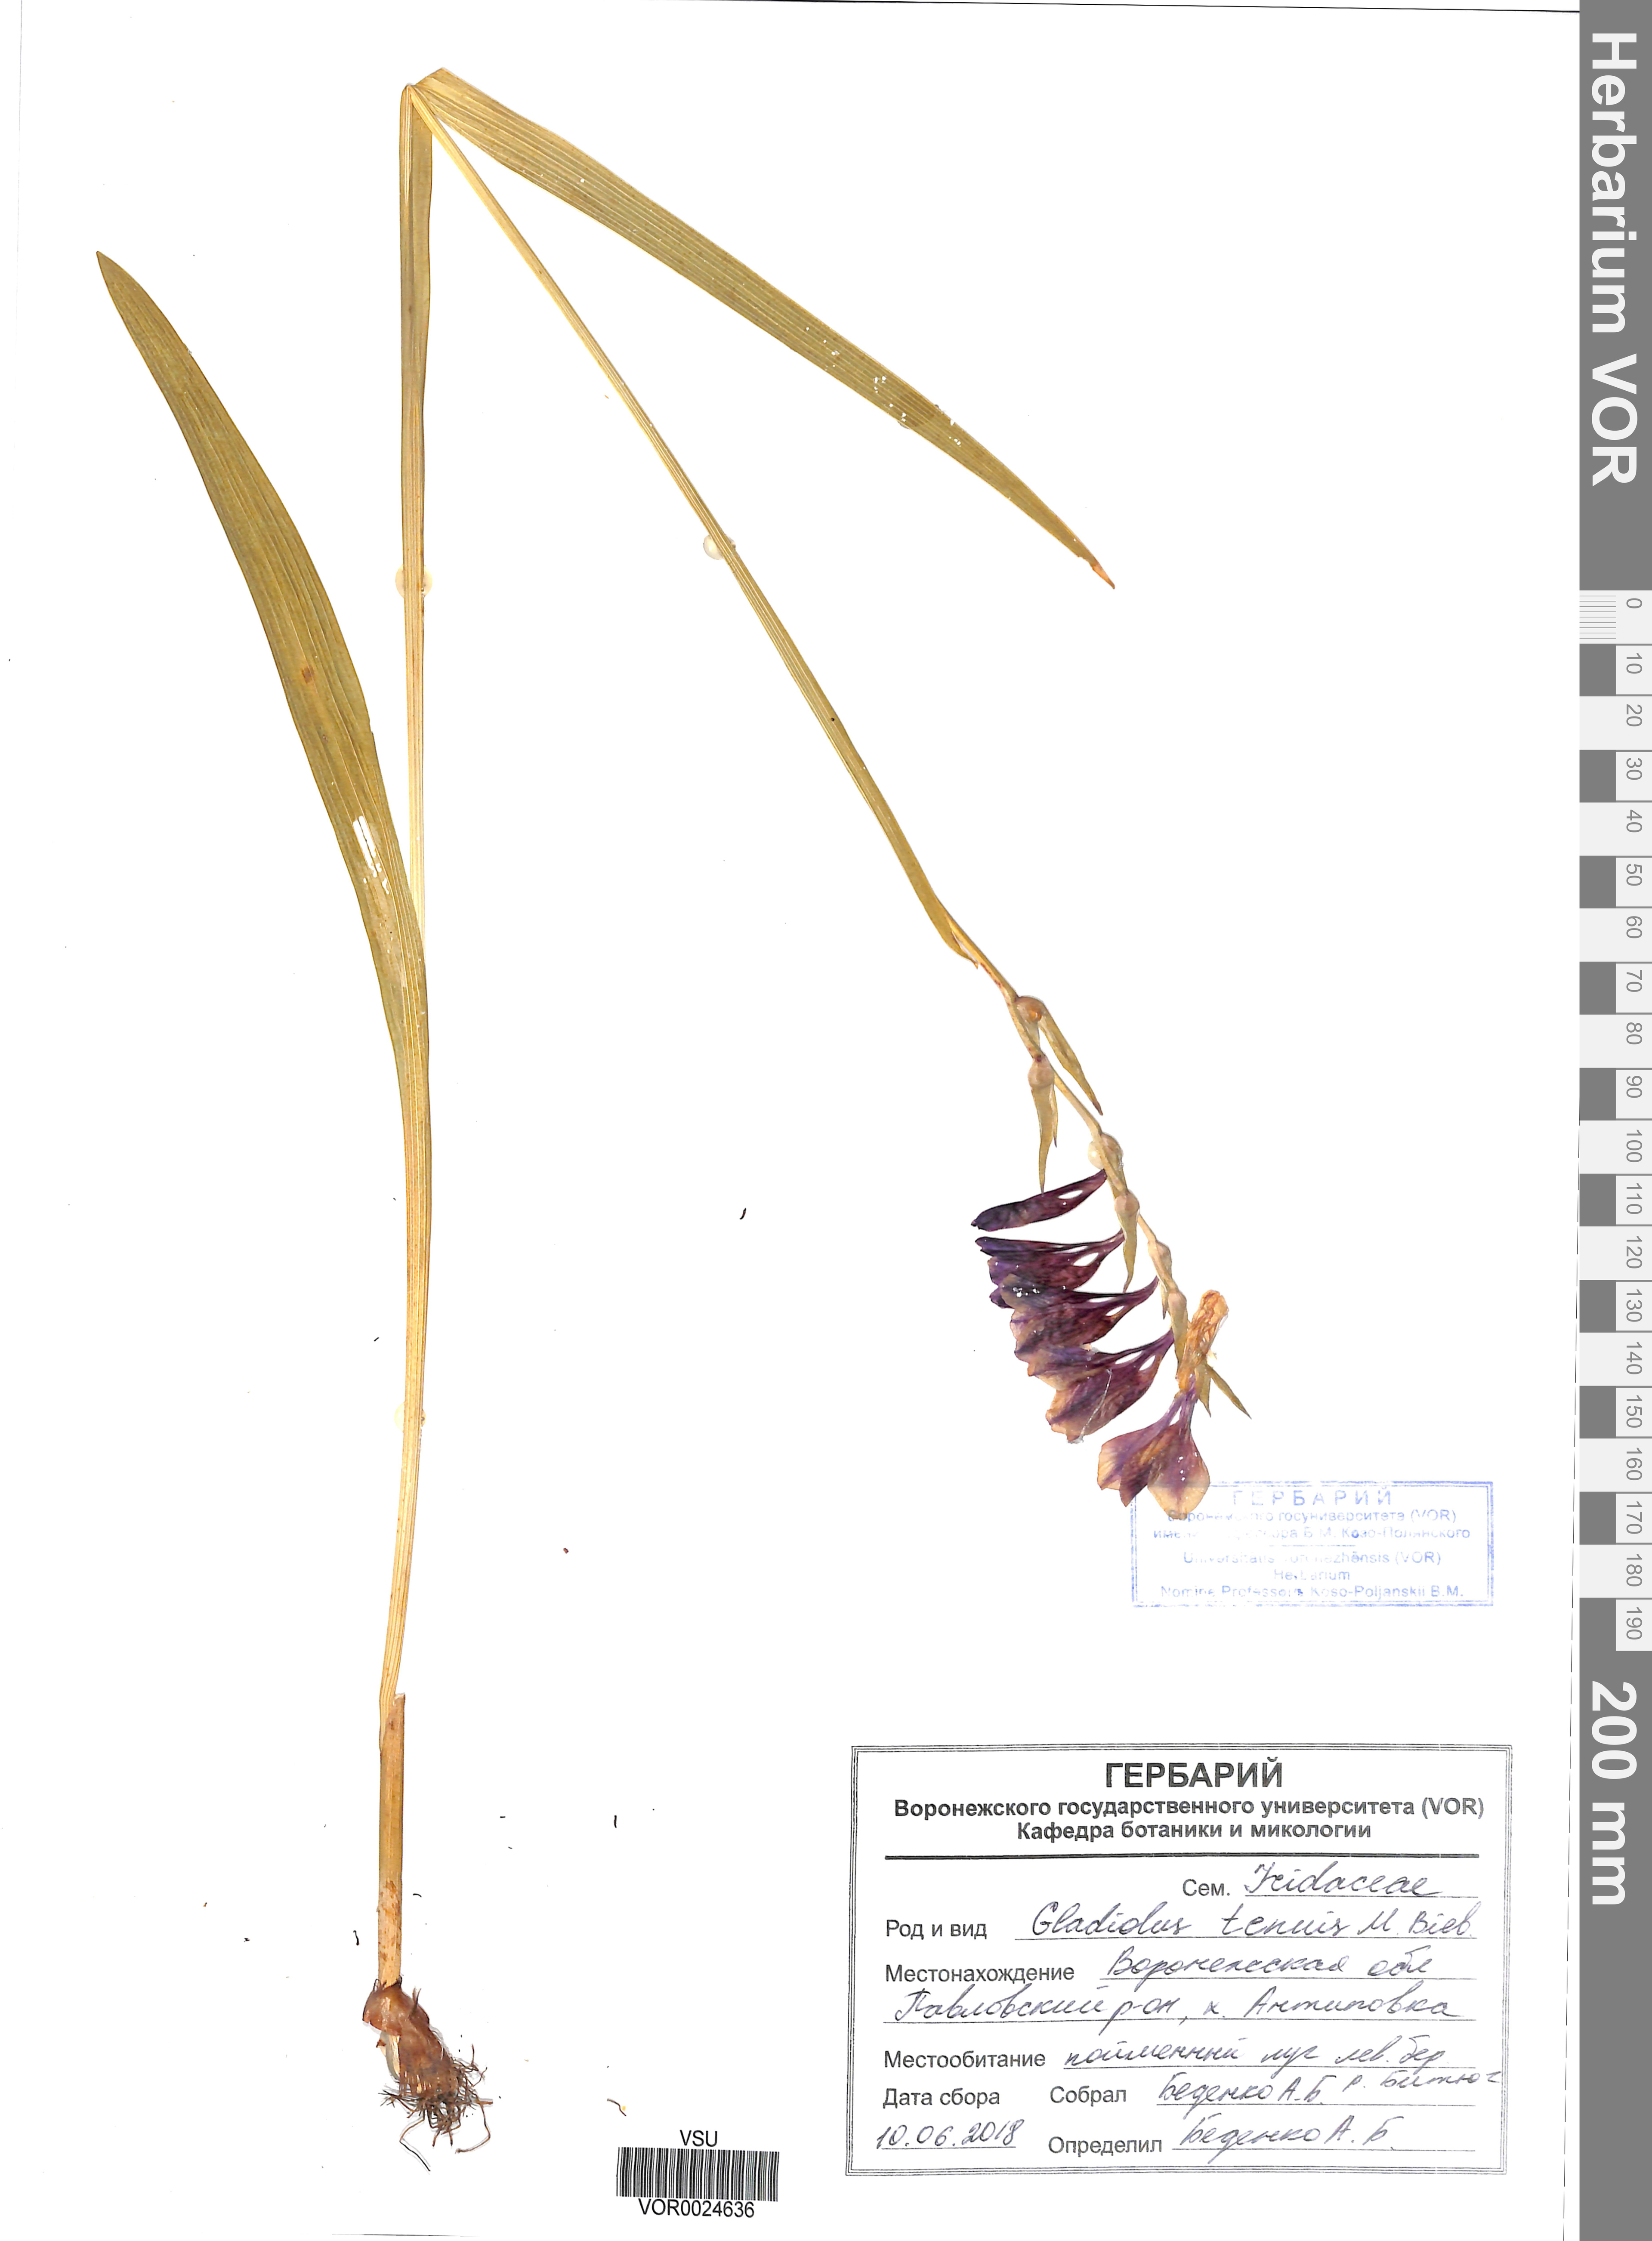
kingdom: Plantae
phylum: Tracheophyta
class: Liliopsida
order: Asparagales
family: Iridaceae
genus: Gladiolus
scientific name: Gladiolus tenuis
